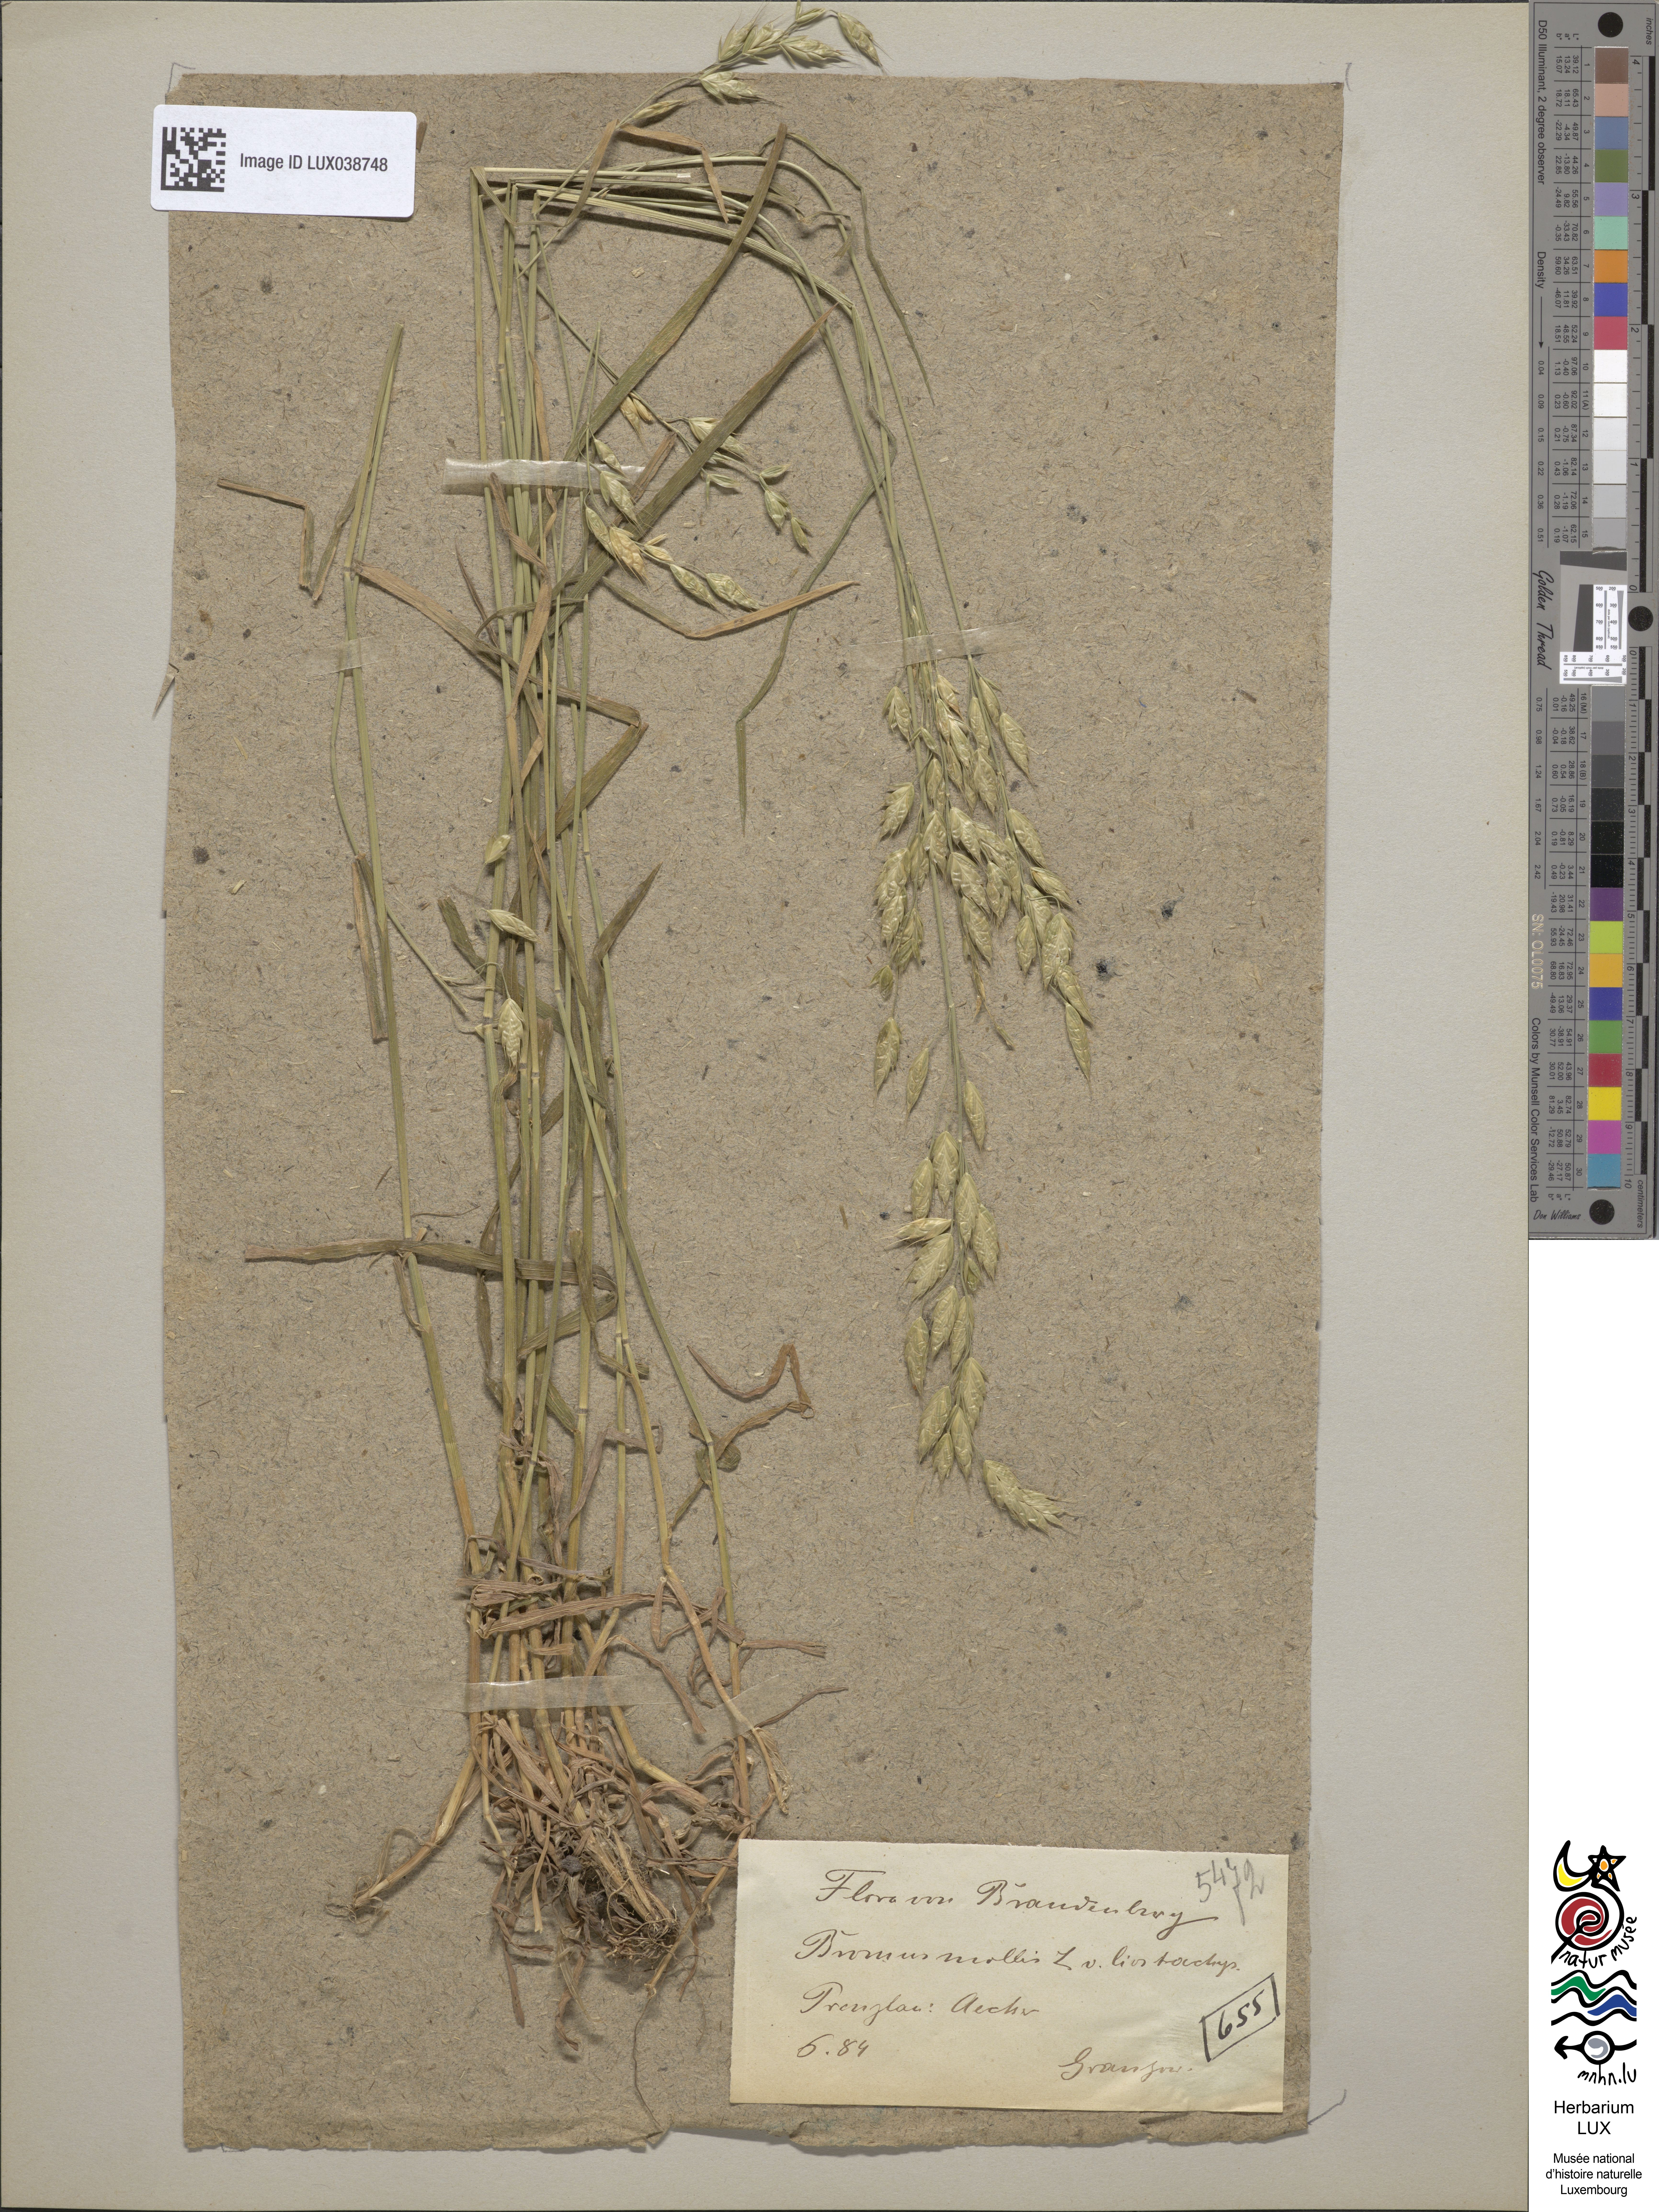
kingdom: Plantae
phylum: Tracheophyta
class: Liliopsida
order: Poales
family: Poaceae
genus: Bromus
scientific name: Bromus hordeaceus
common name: Soft brome
